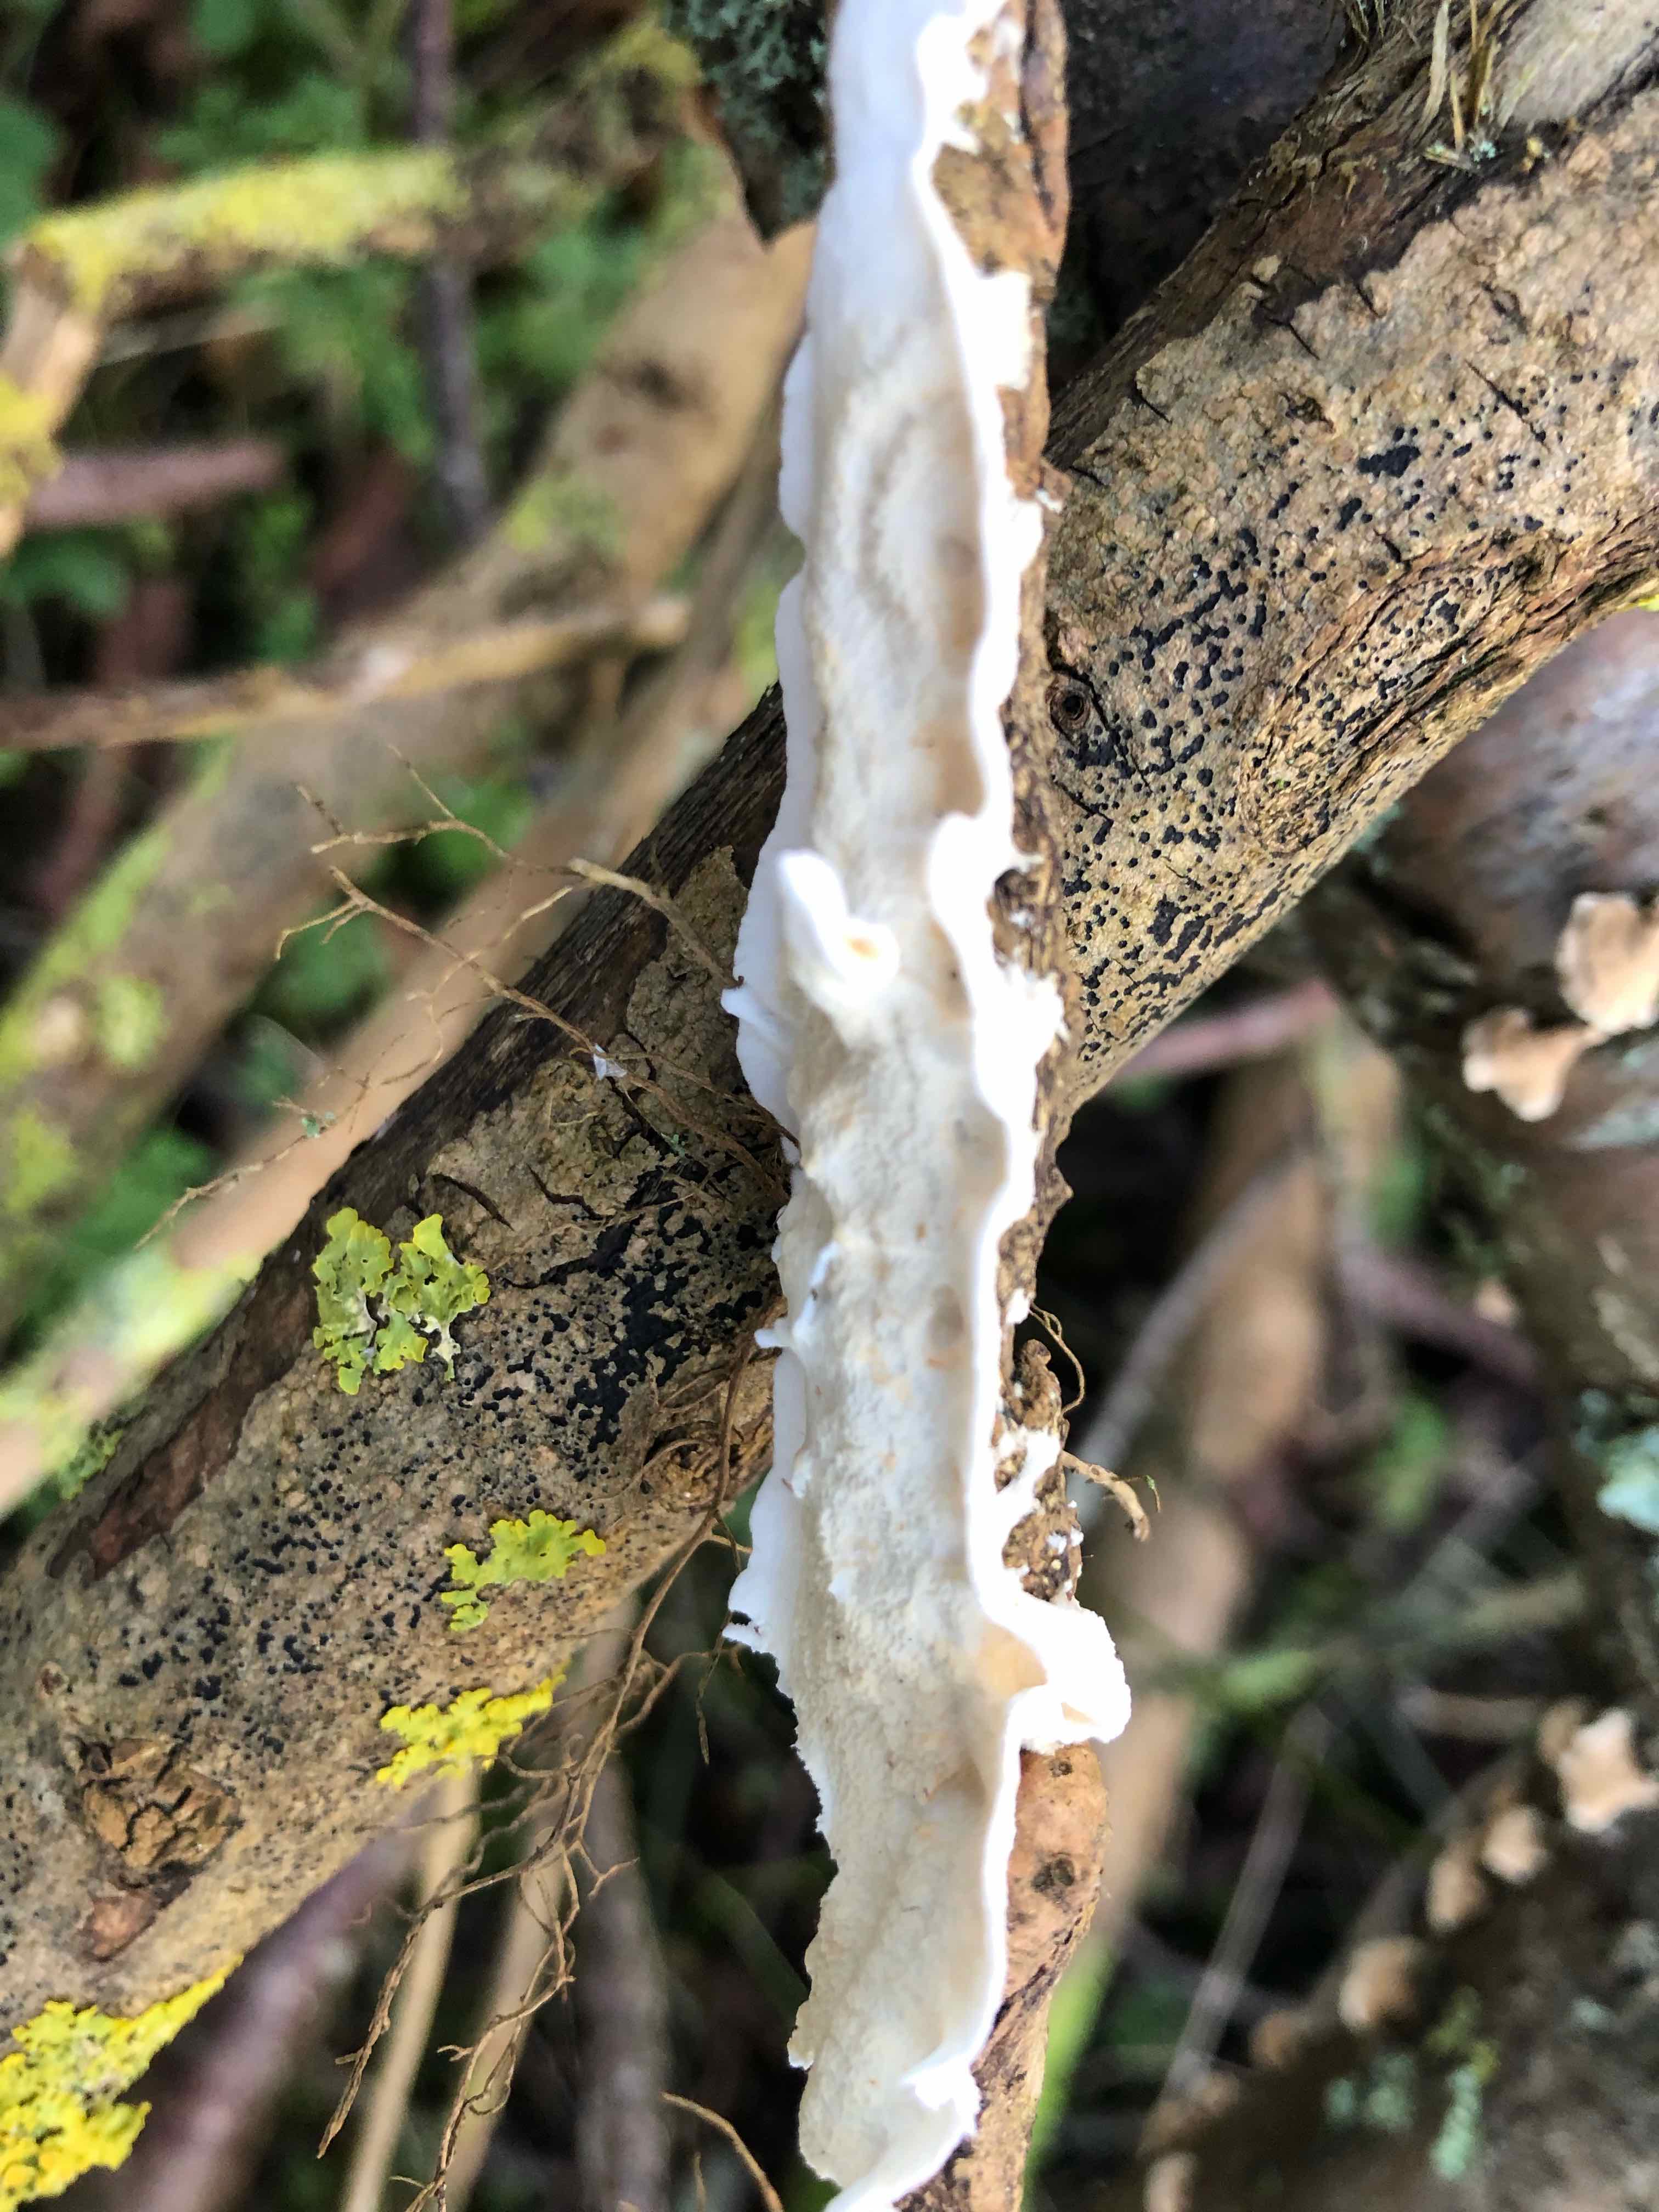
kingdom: Fungi
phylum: Basidiomycota
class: Agaricomycetes
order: Polyporales
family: Irpicaceae
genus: Byssomerulius
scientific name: Byssomerulius corium
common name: læder-åresvamp
